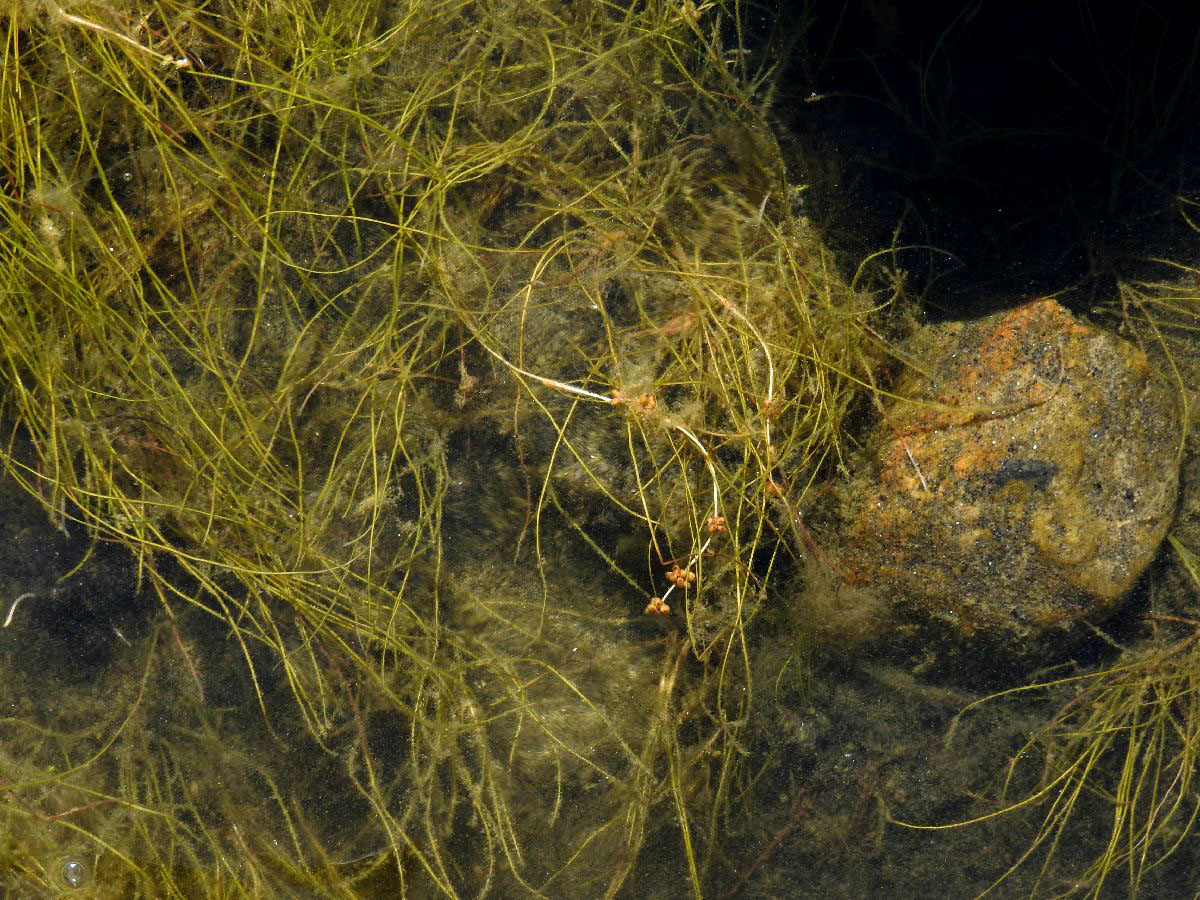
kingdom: Plantae
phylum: Tracheophyta
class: Liliopsida
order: Alismatales
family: Potamogetonaceae
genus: Stuckenia
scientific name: Stuckenia pectinata
